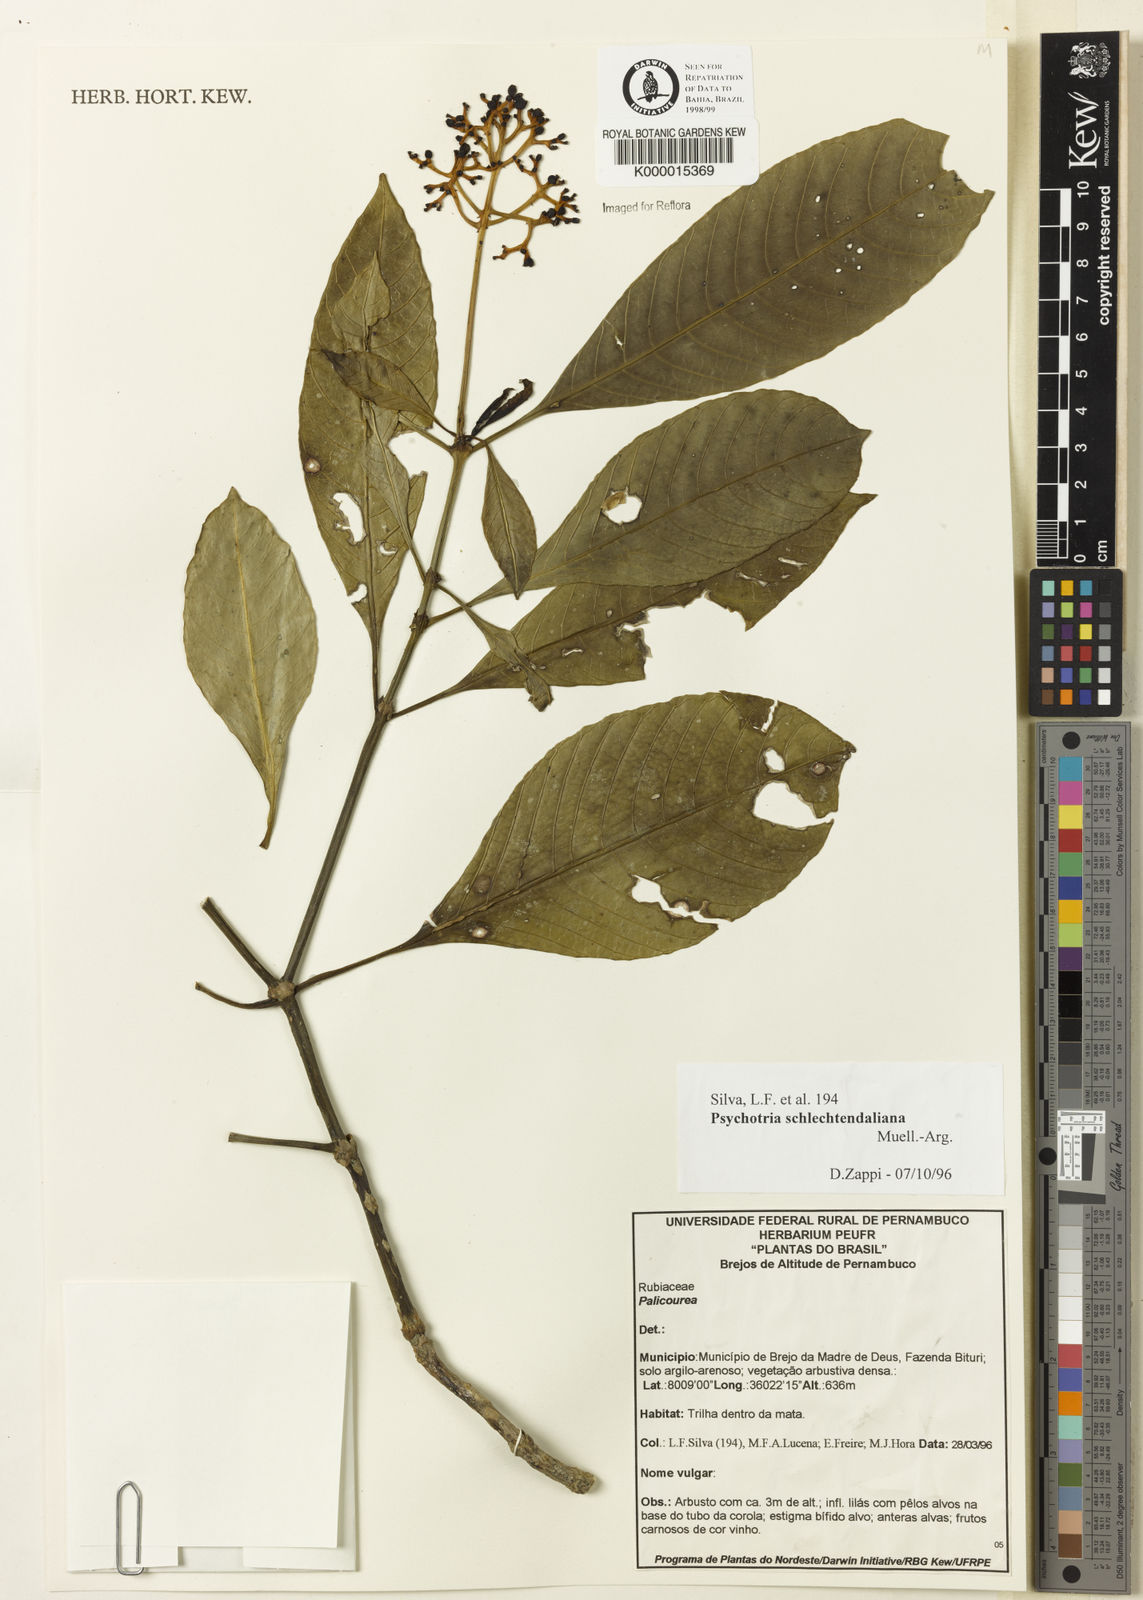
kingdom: Plantae
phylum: Tracheophyta
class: Magnoliopsida
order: Gentianales
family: Rubiaceae
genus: Palicourea
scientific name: Palicourea divaricata
